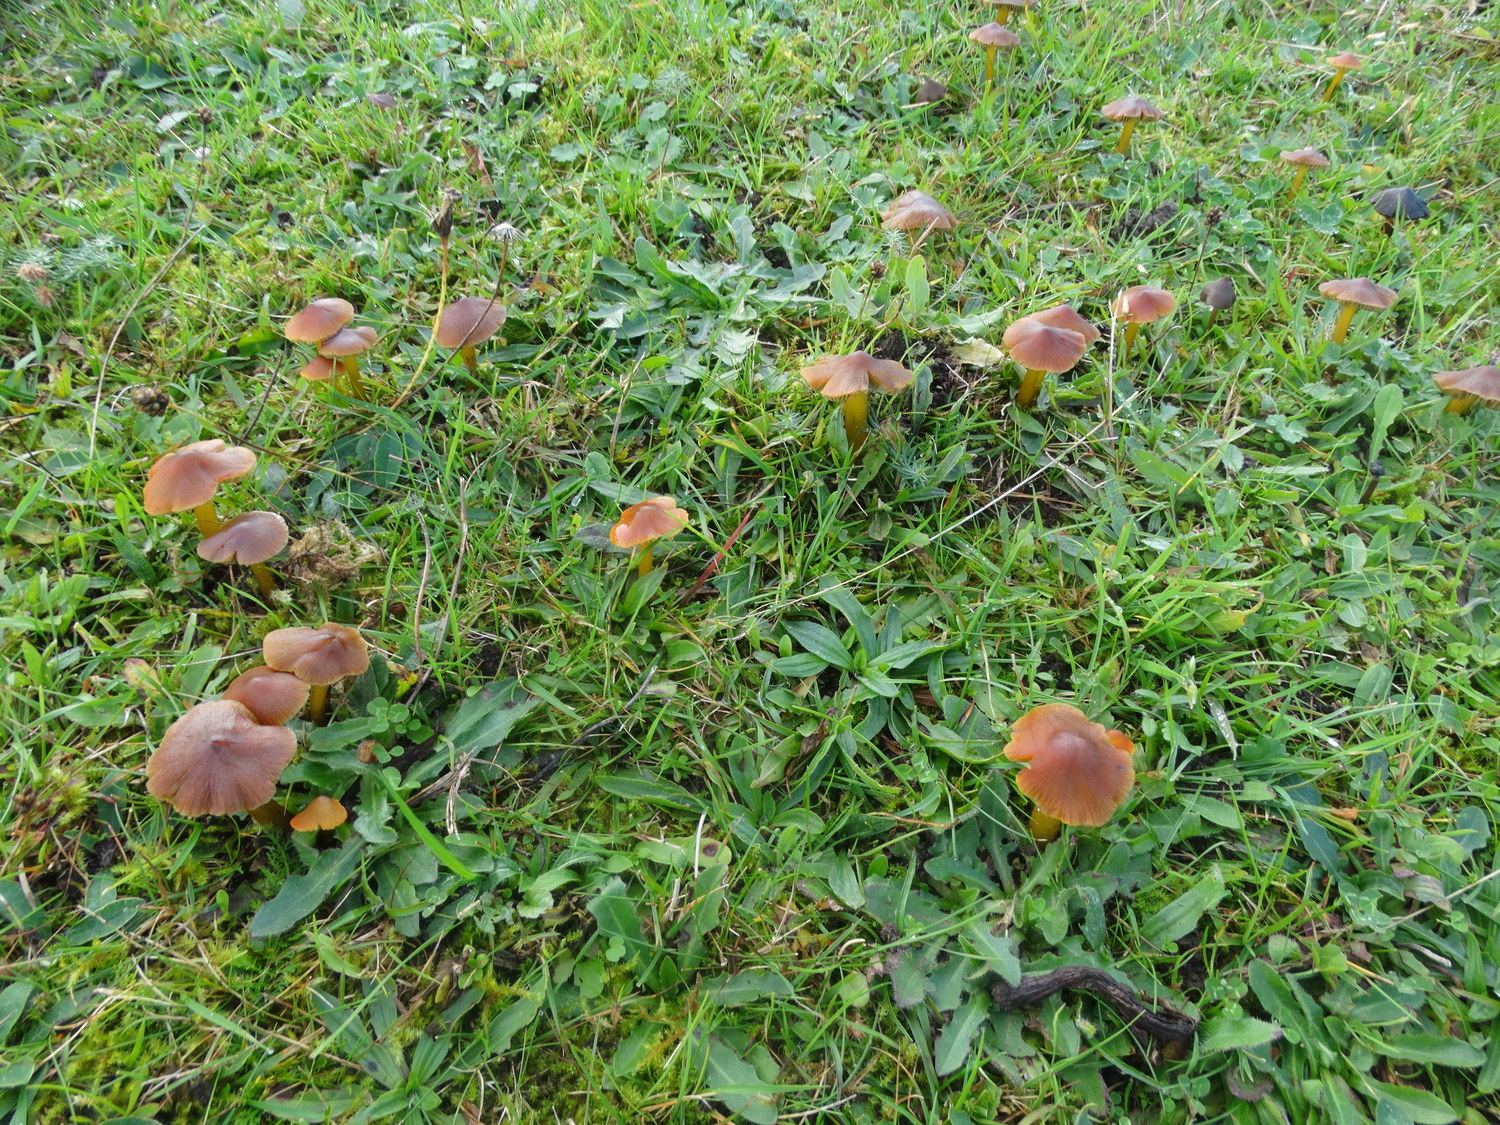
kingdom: Fungi
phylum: Basidiomycota
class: Agaricomycetes
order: Agaricales
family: Hygrophoraceae
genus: Hygrocybe
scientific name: Hygrocybe conica
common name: kegle-vokshat
